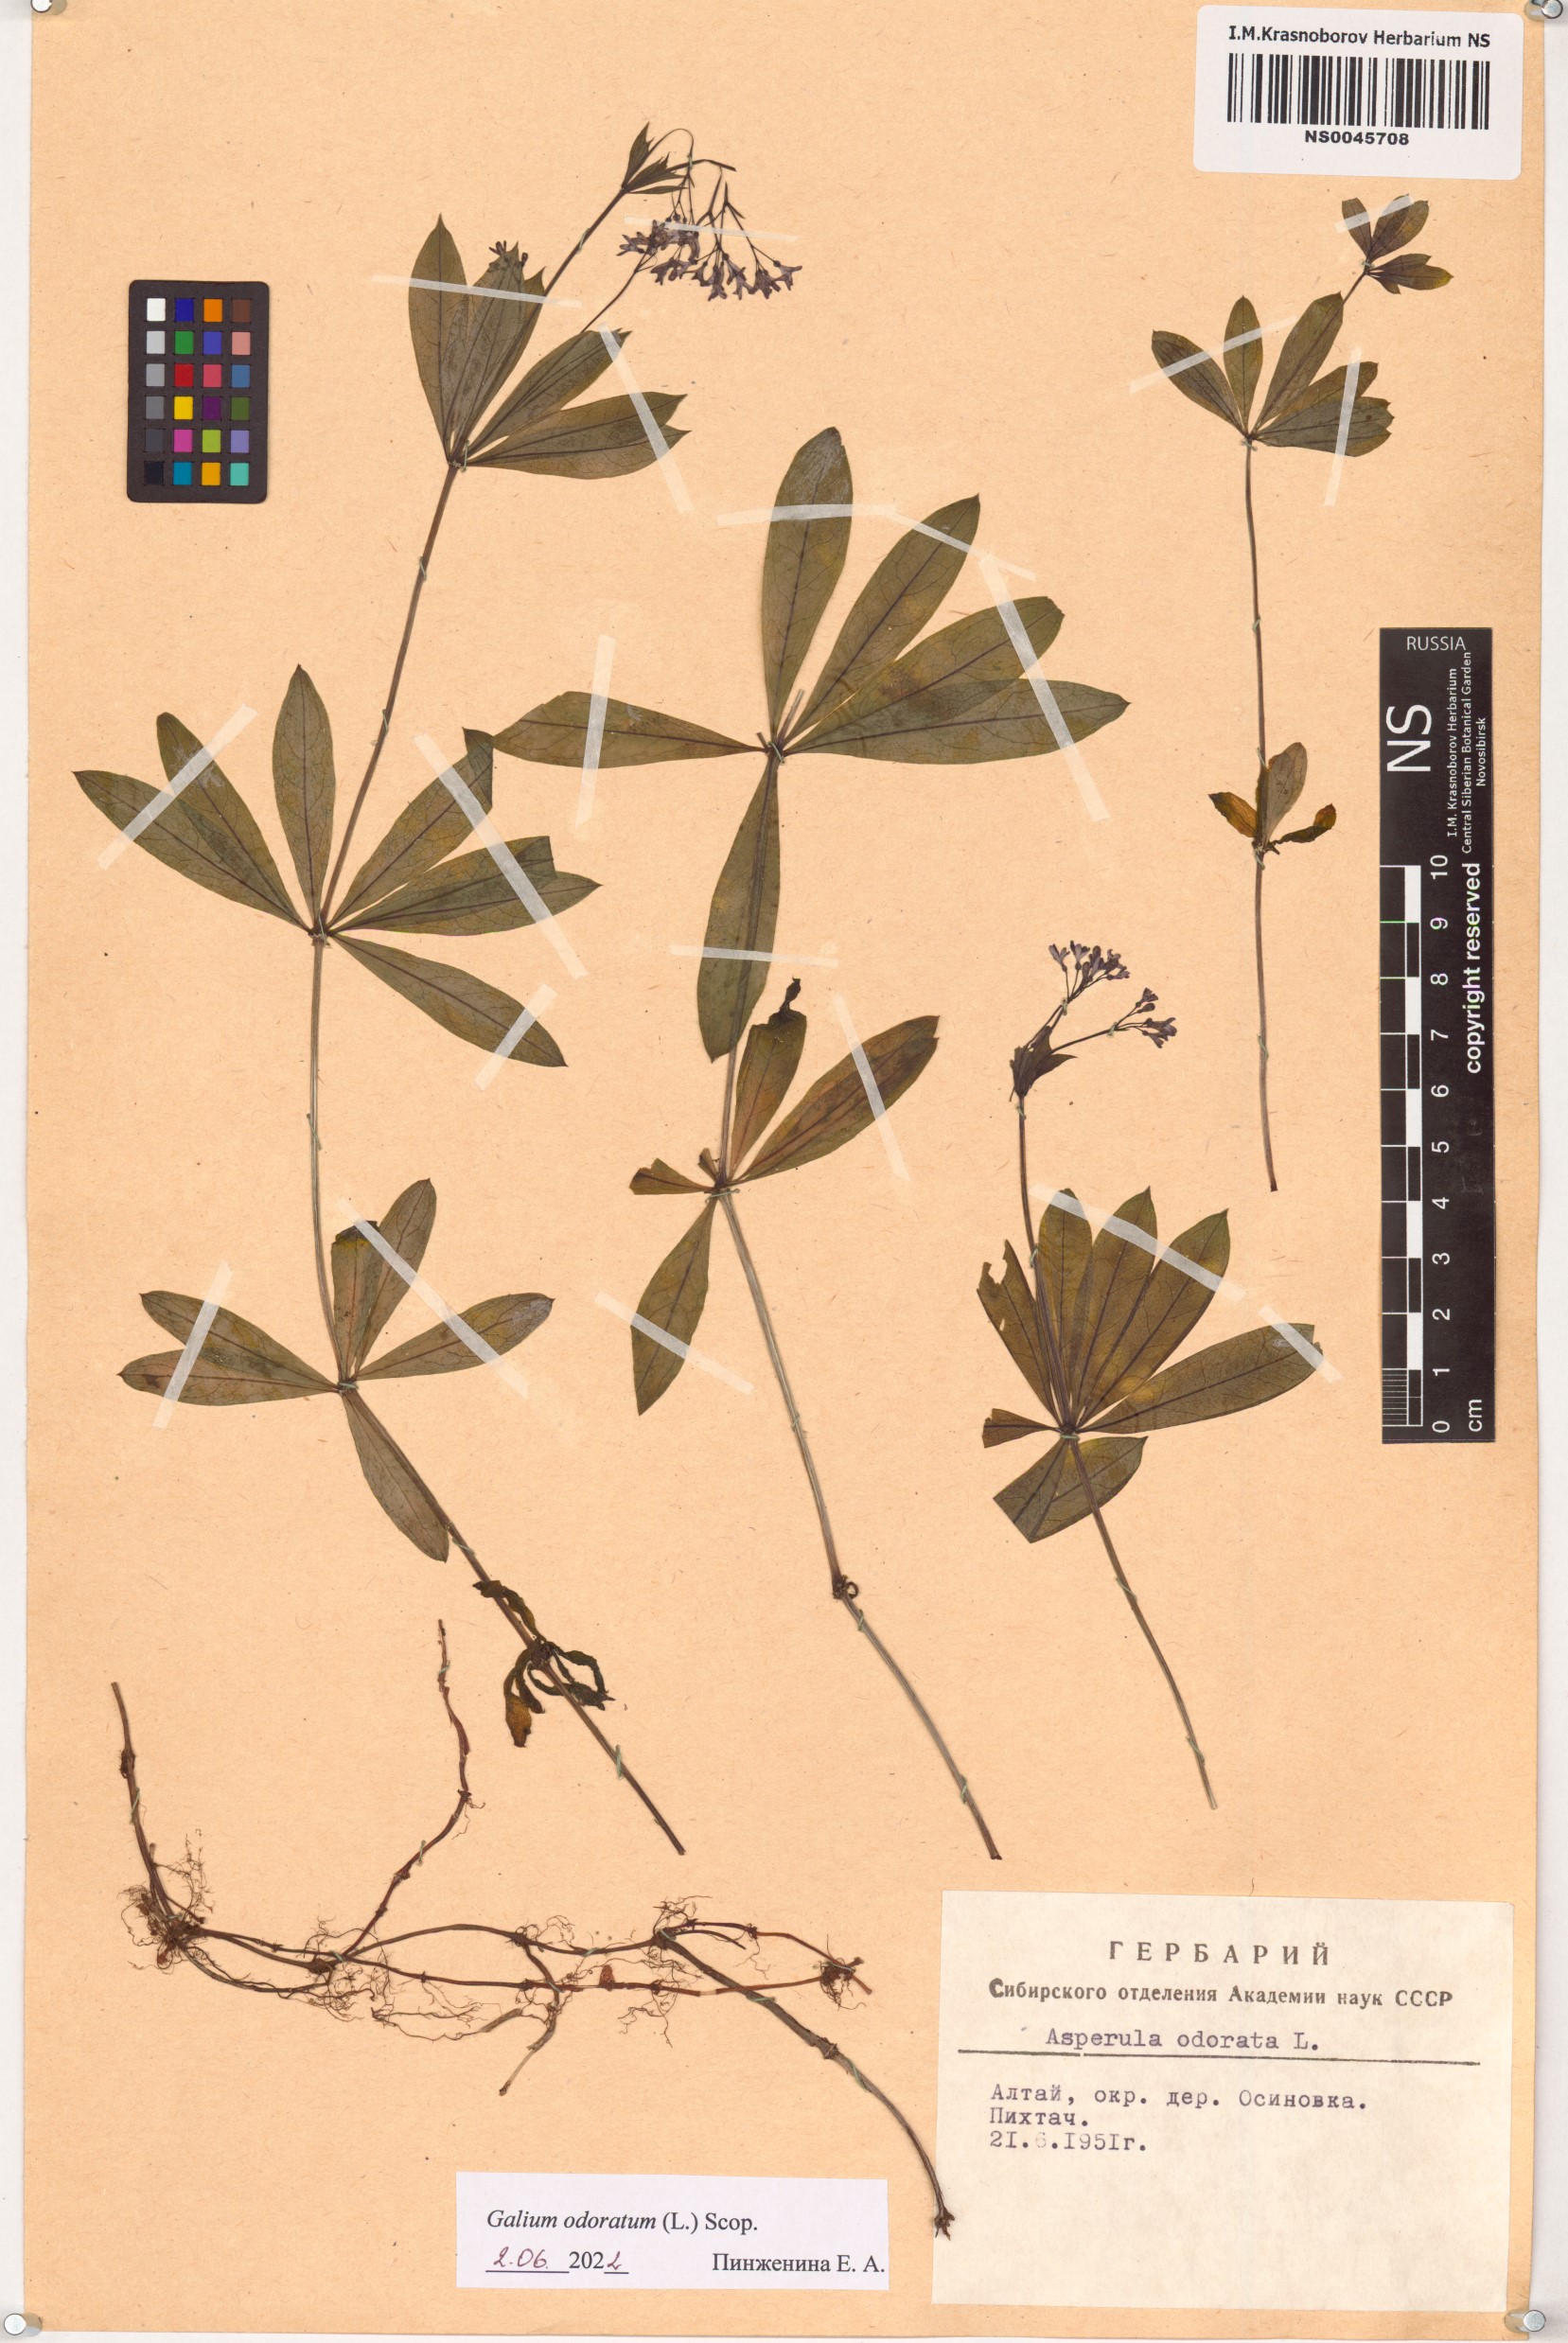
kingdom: Plantae
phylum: Tracheophyta
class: Magnoliopsida
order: Gentianales
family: Rubiaceae
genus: Galium
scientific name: Galium odoratum
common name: Sweet woodruff
